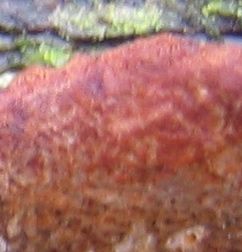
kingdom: Fungi
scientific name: Fungi
